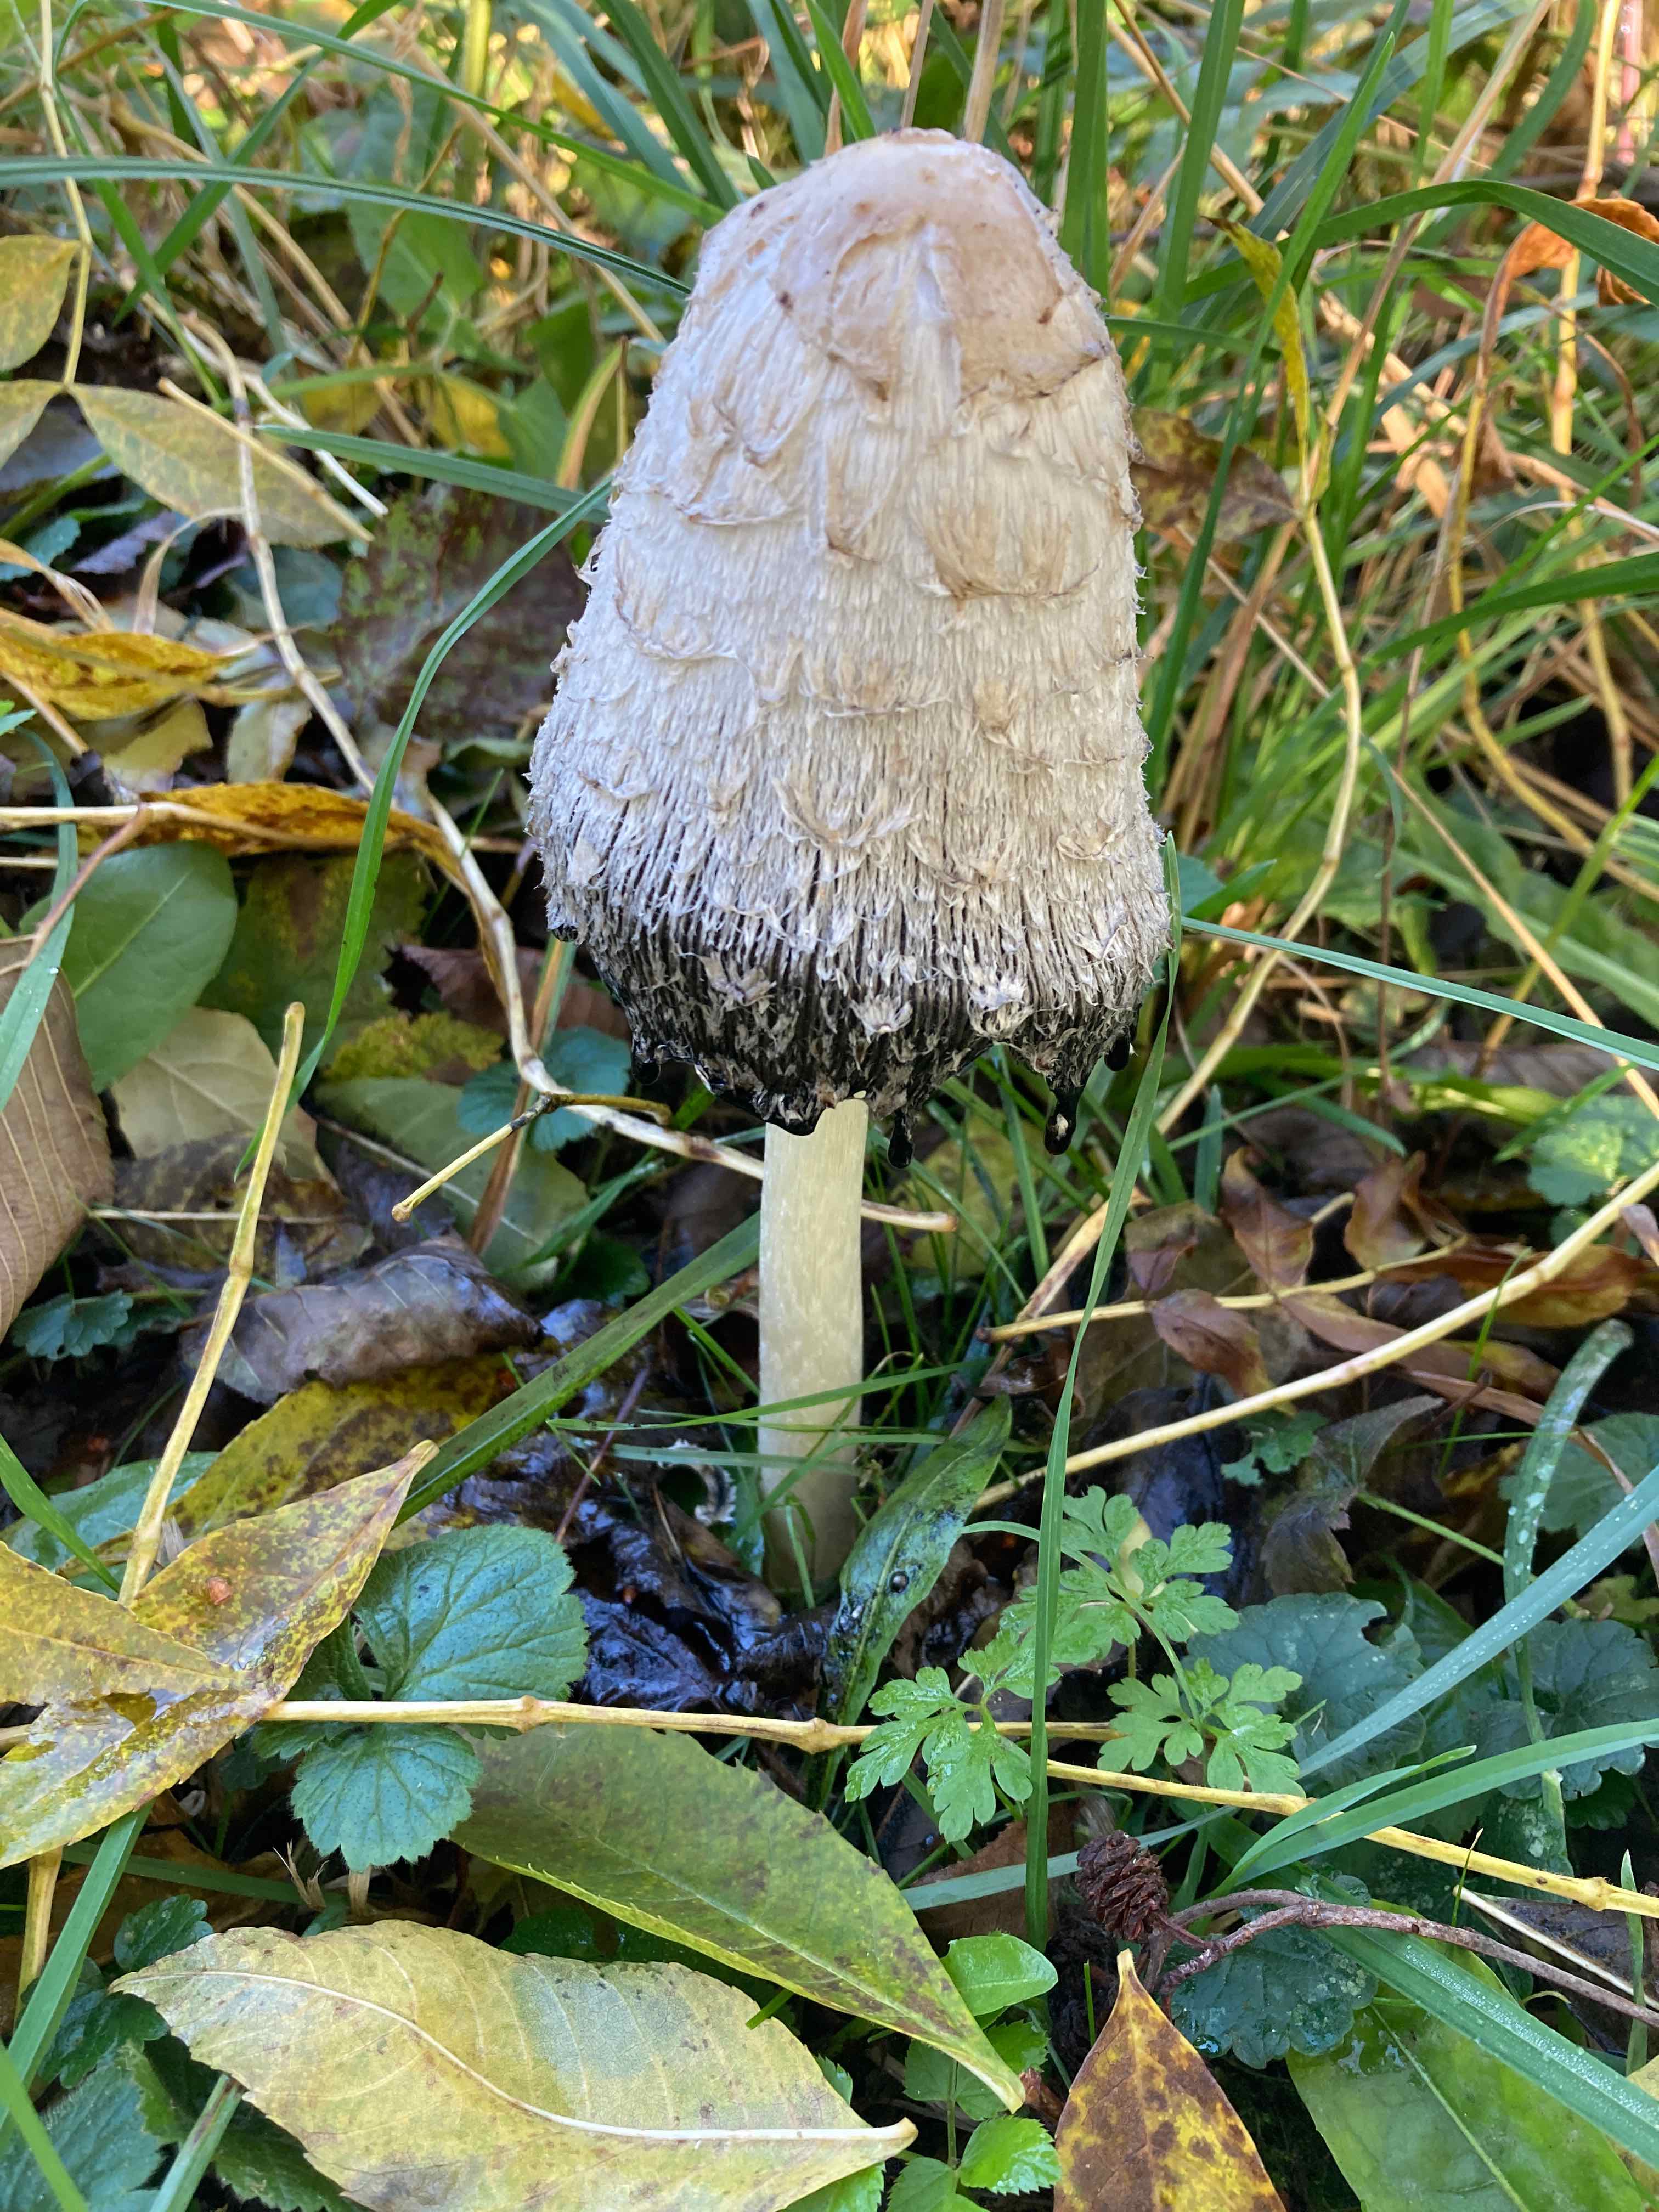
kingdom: Fungi
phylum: Basidiomycota
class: Agaricomycetes
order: Agaricales
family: Agaricaceae
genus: Coprinus
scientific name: Coprinus comatus
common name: stor parykhat
